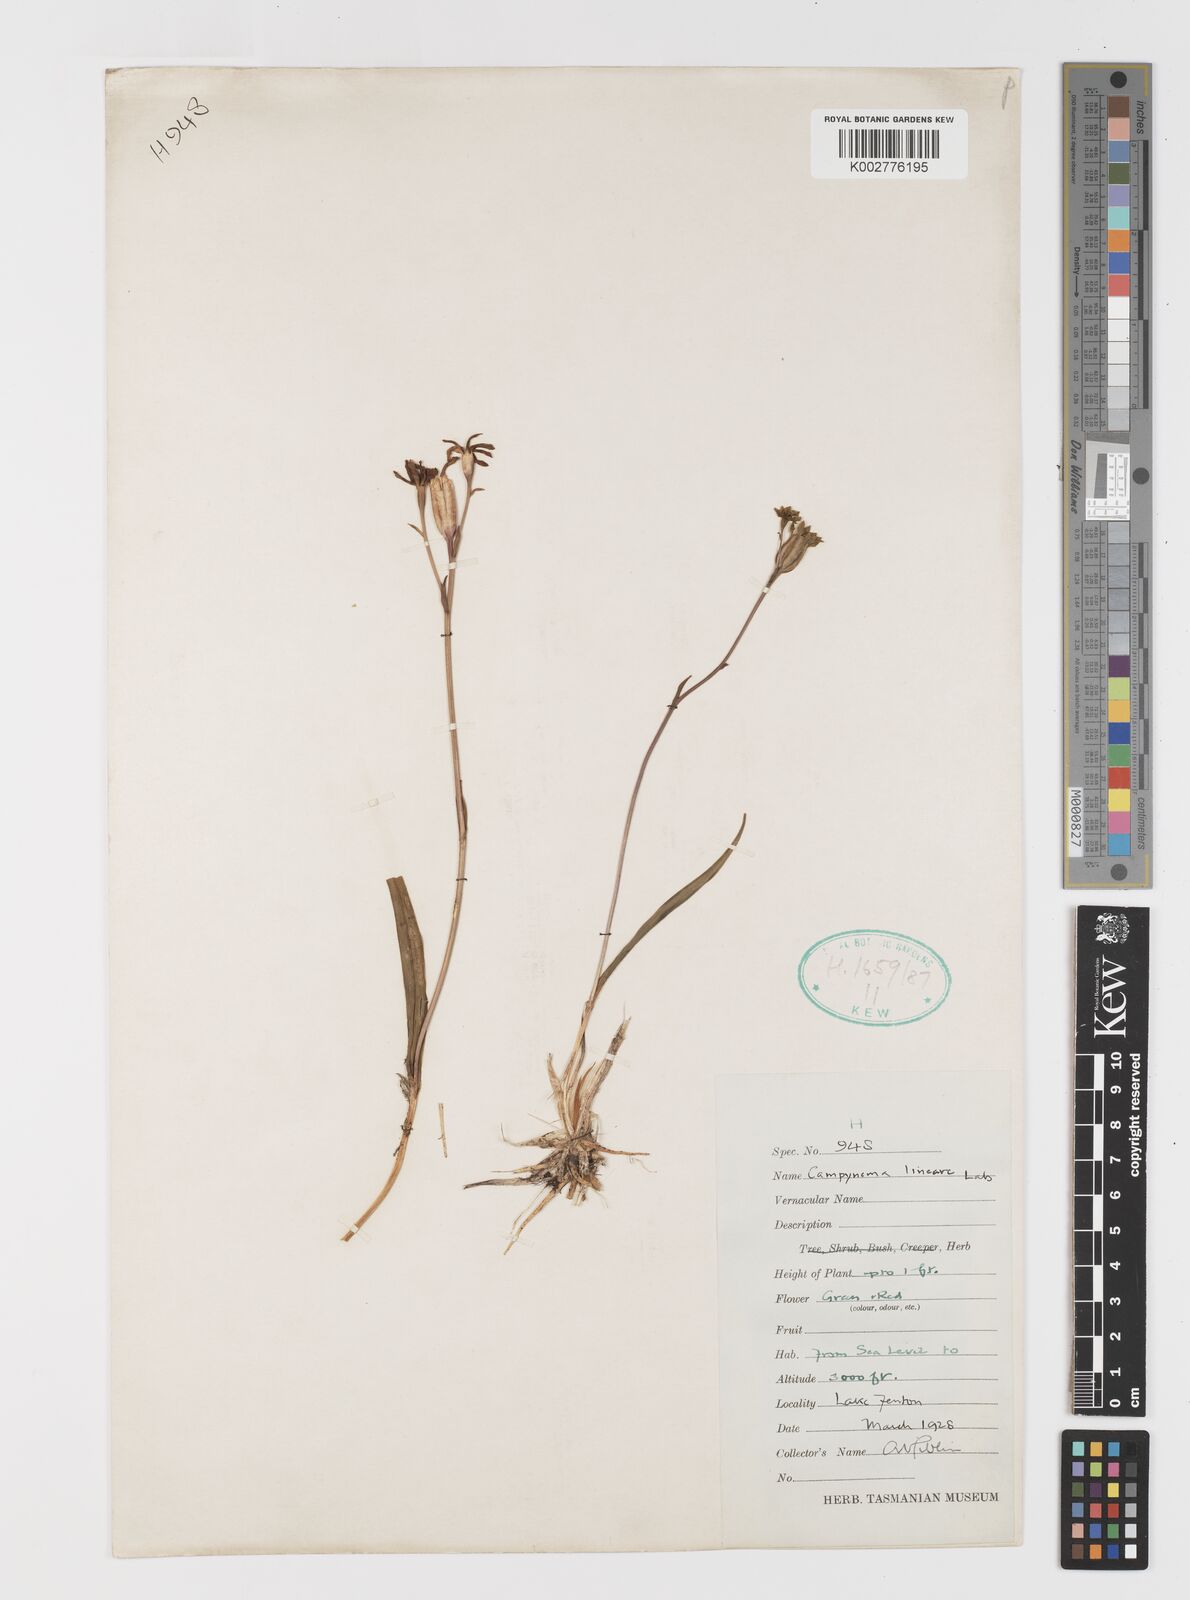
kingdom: Plantae
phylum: Tracheophyta
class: Liliopsida
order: Liliales
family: Campynemataceae
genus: Campynema
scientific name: Campynema lineare
